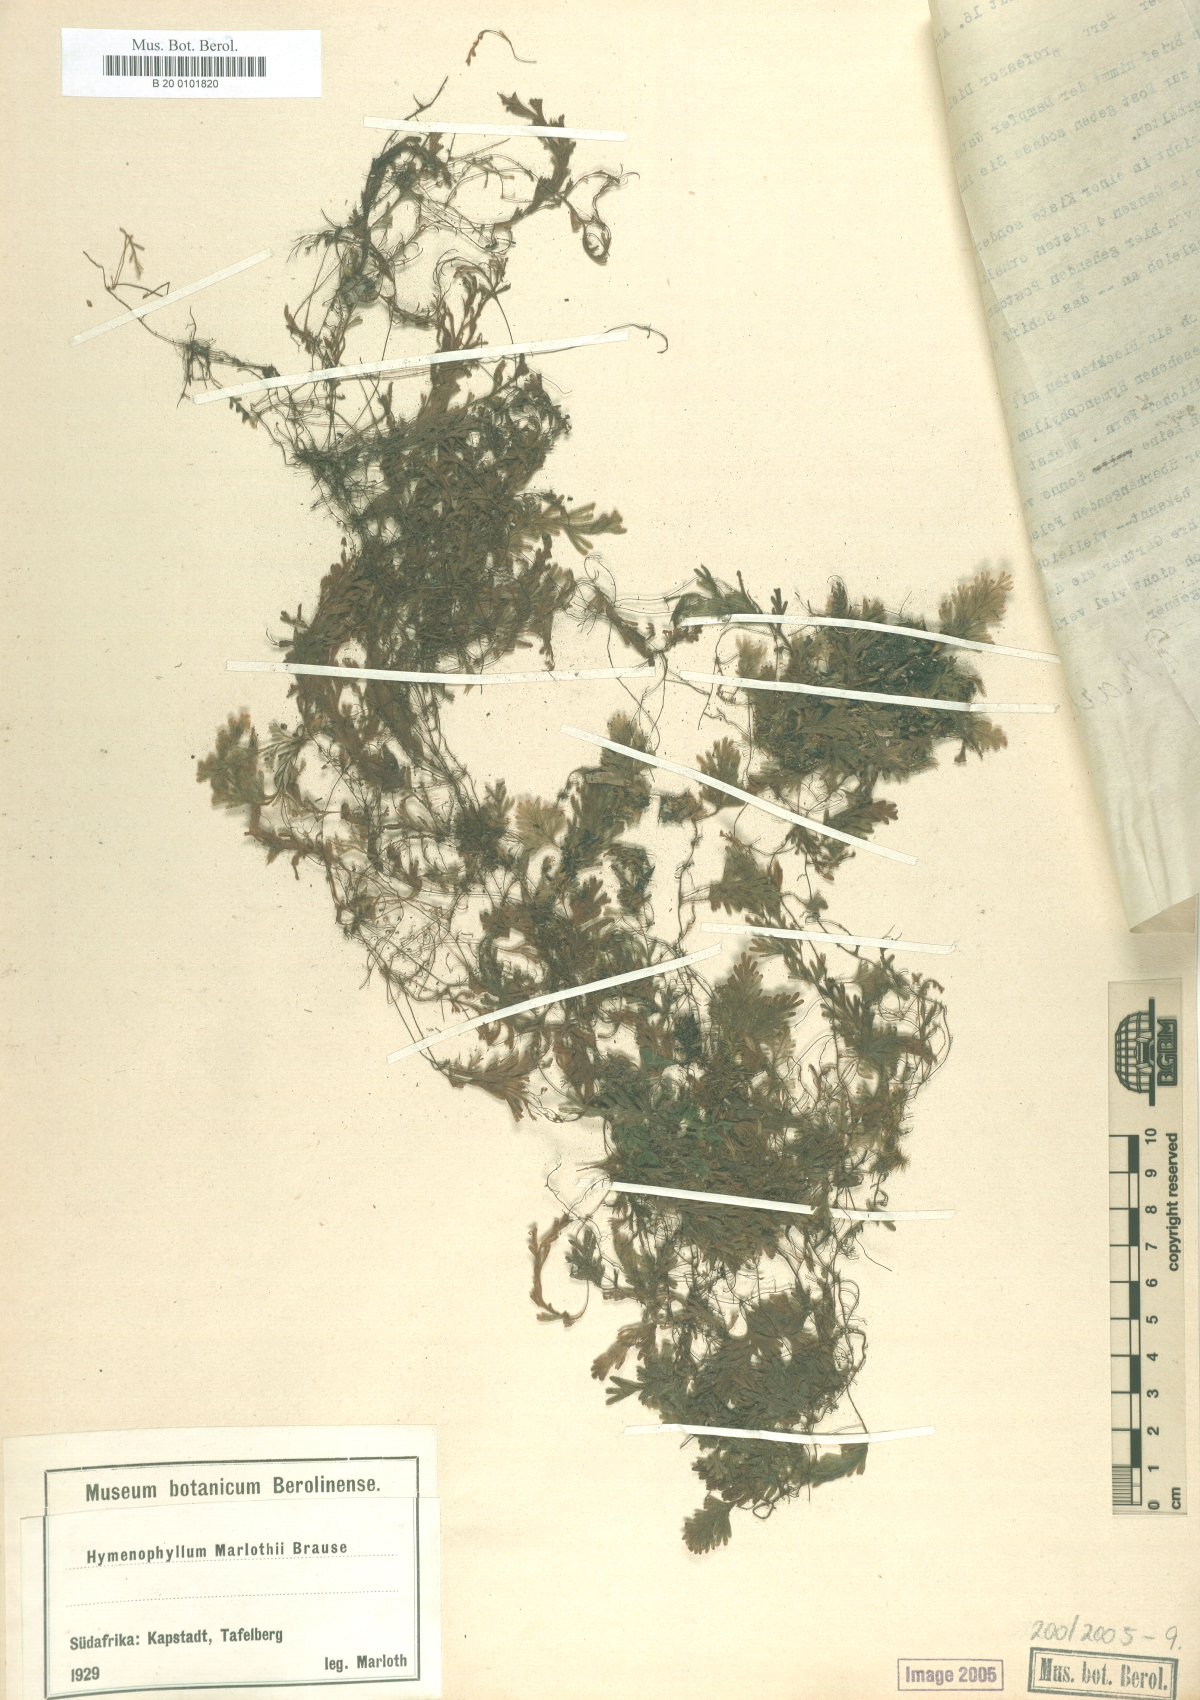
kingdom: Plantae
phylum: Tracheophyta
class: Polypodiopsida
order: Hymenophyllales
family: Hymenophyllaceae
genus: Hymenophyllum
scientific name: Hymenophyllum aeruginosum
